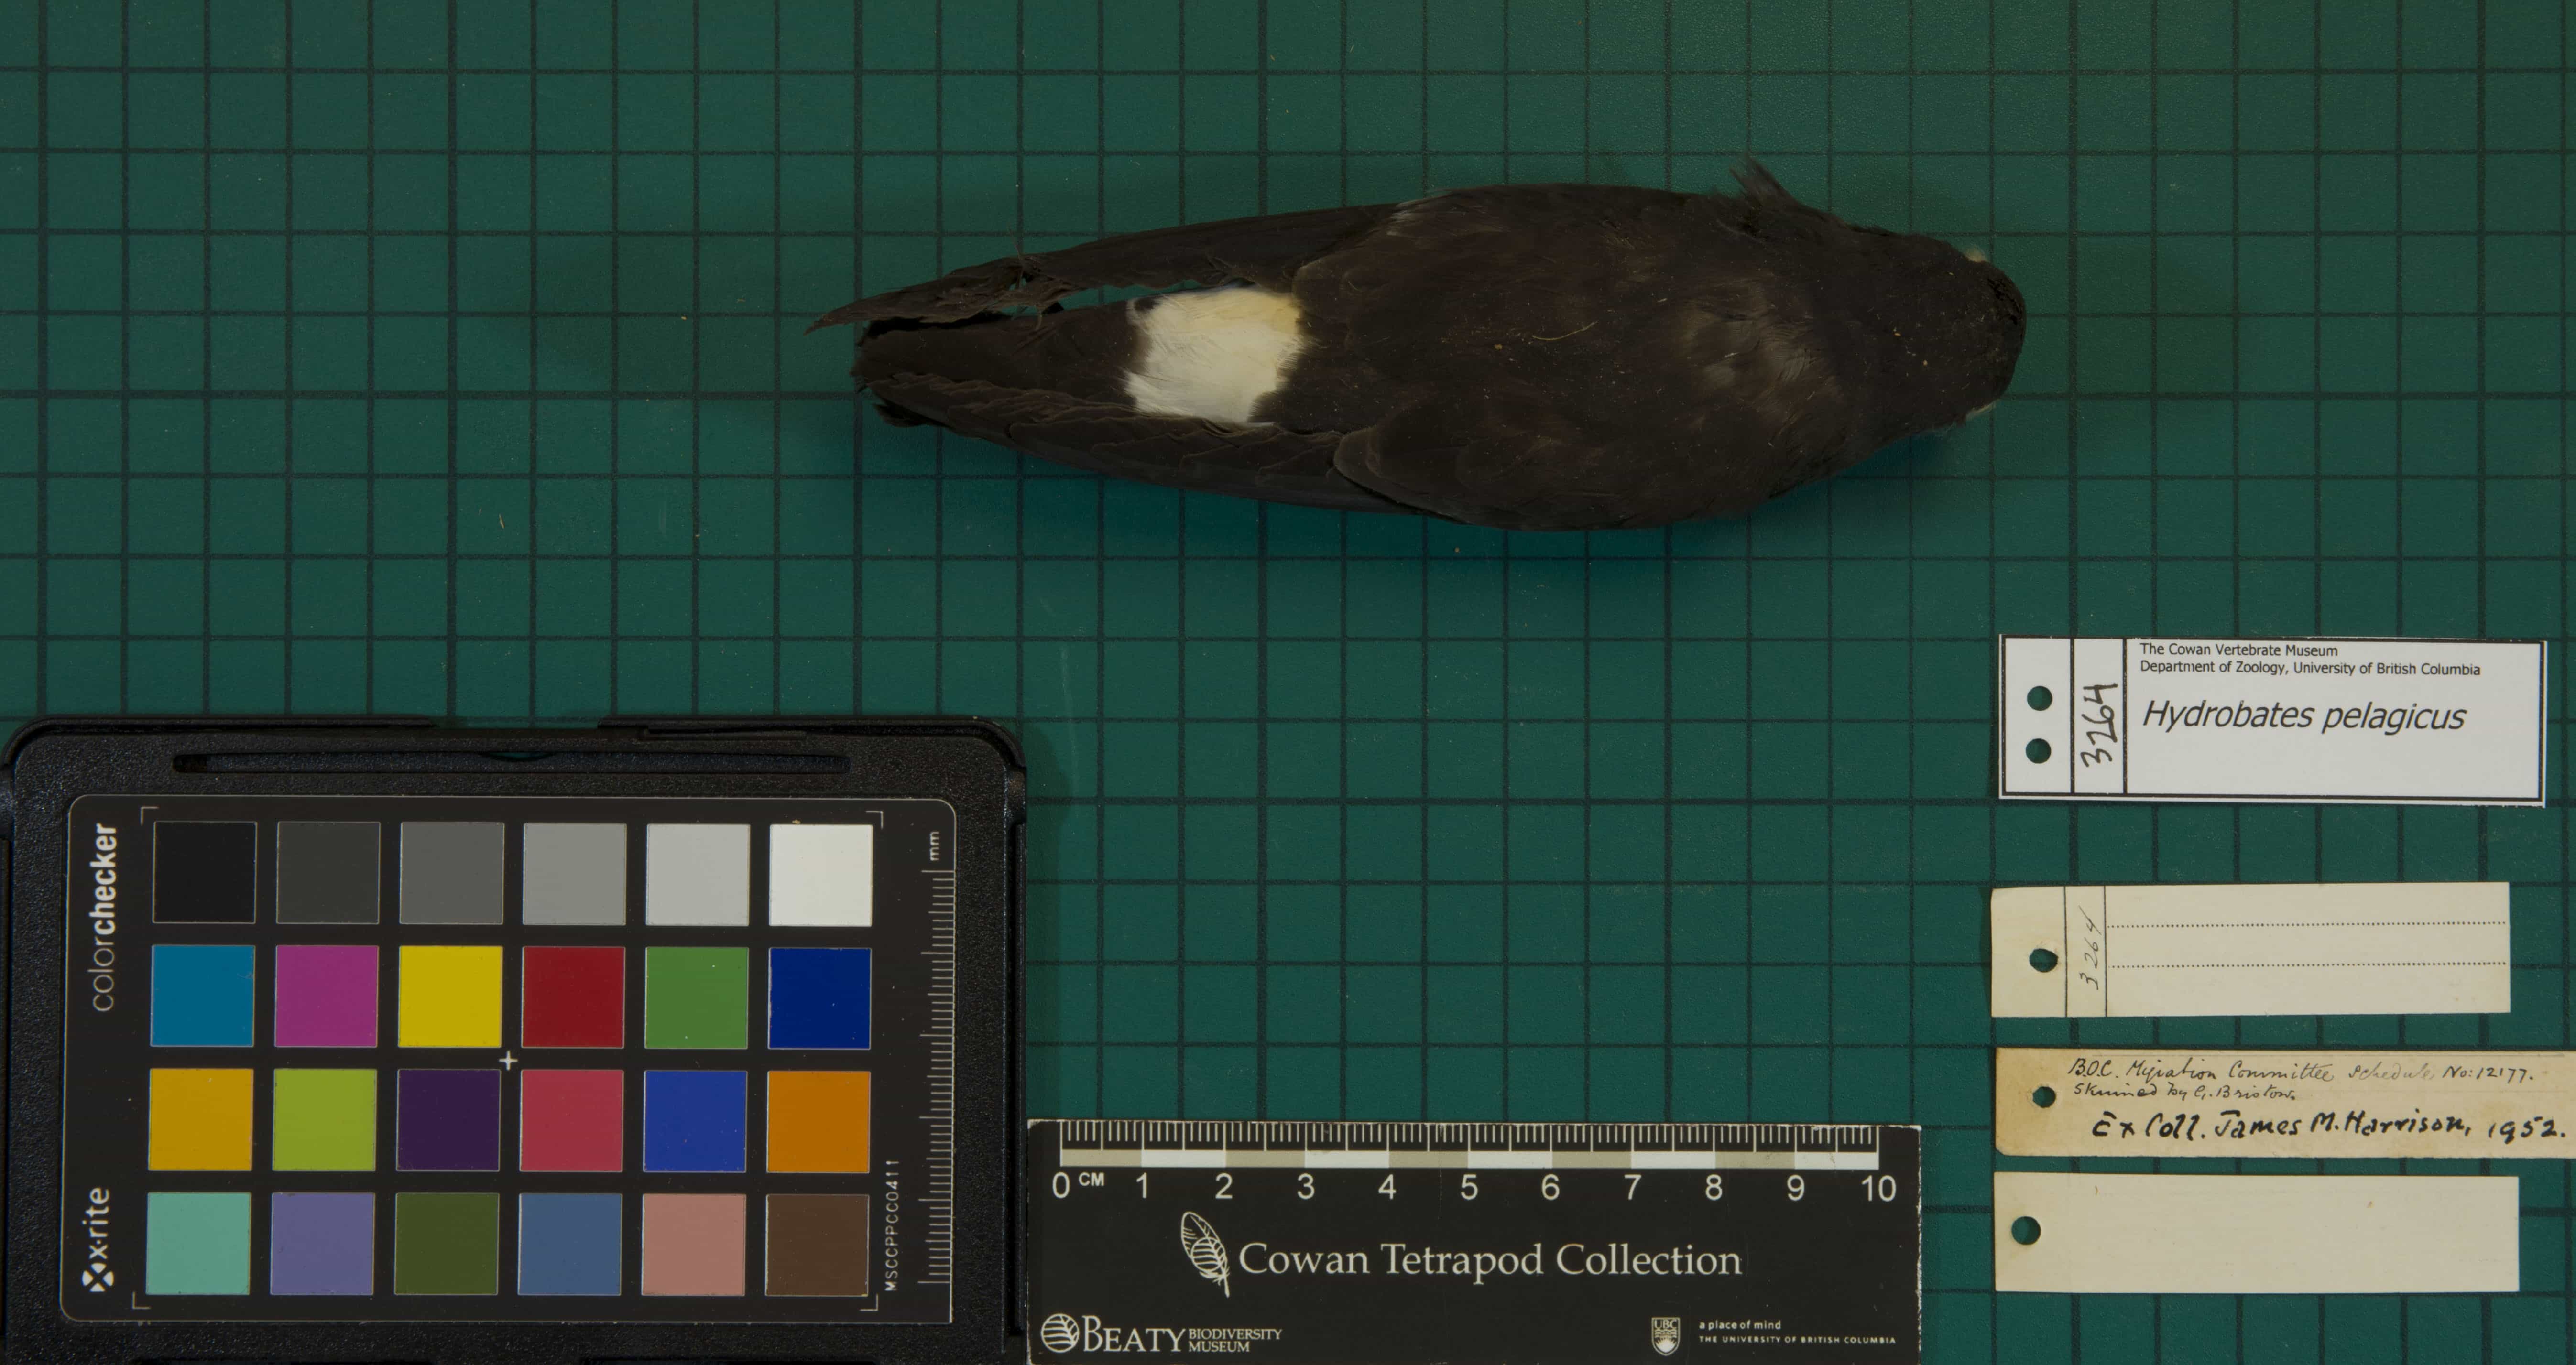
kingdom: Animalia
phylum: Chordata
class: Aves
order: Procellariiformes
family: Hydrobatidae
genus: Hydrobates
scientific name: Hydrobates pelagicus
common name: European Storm-Petrel
